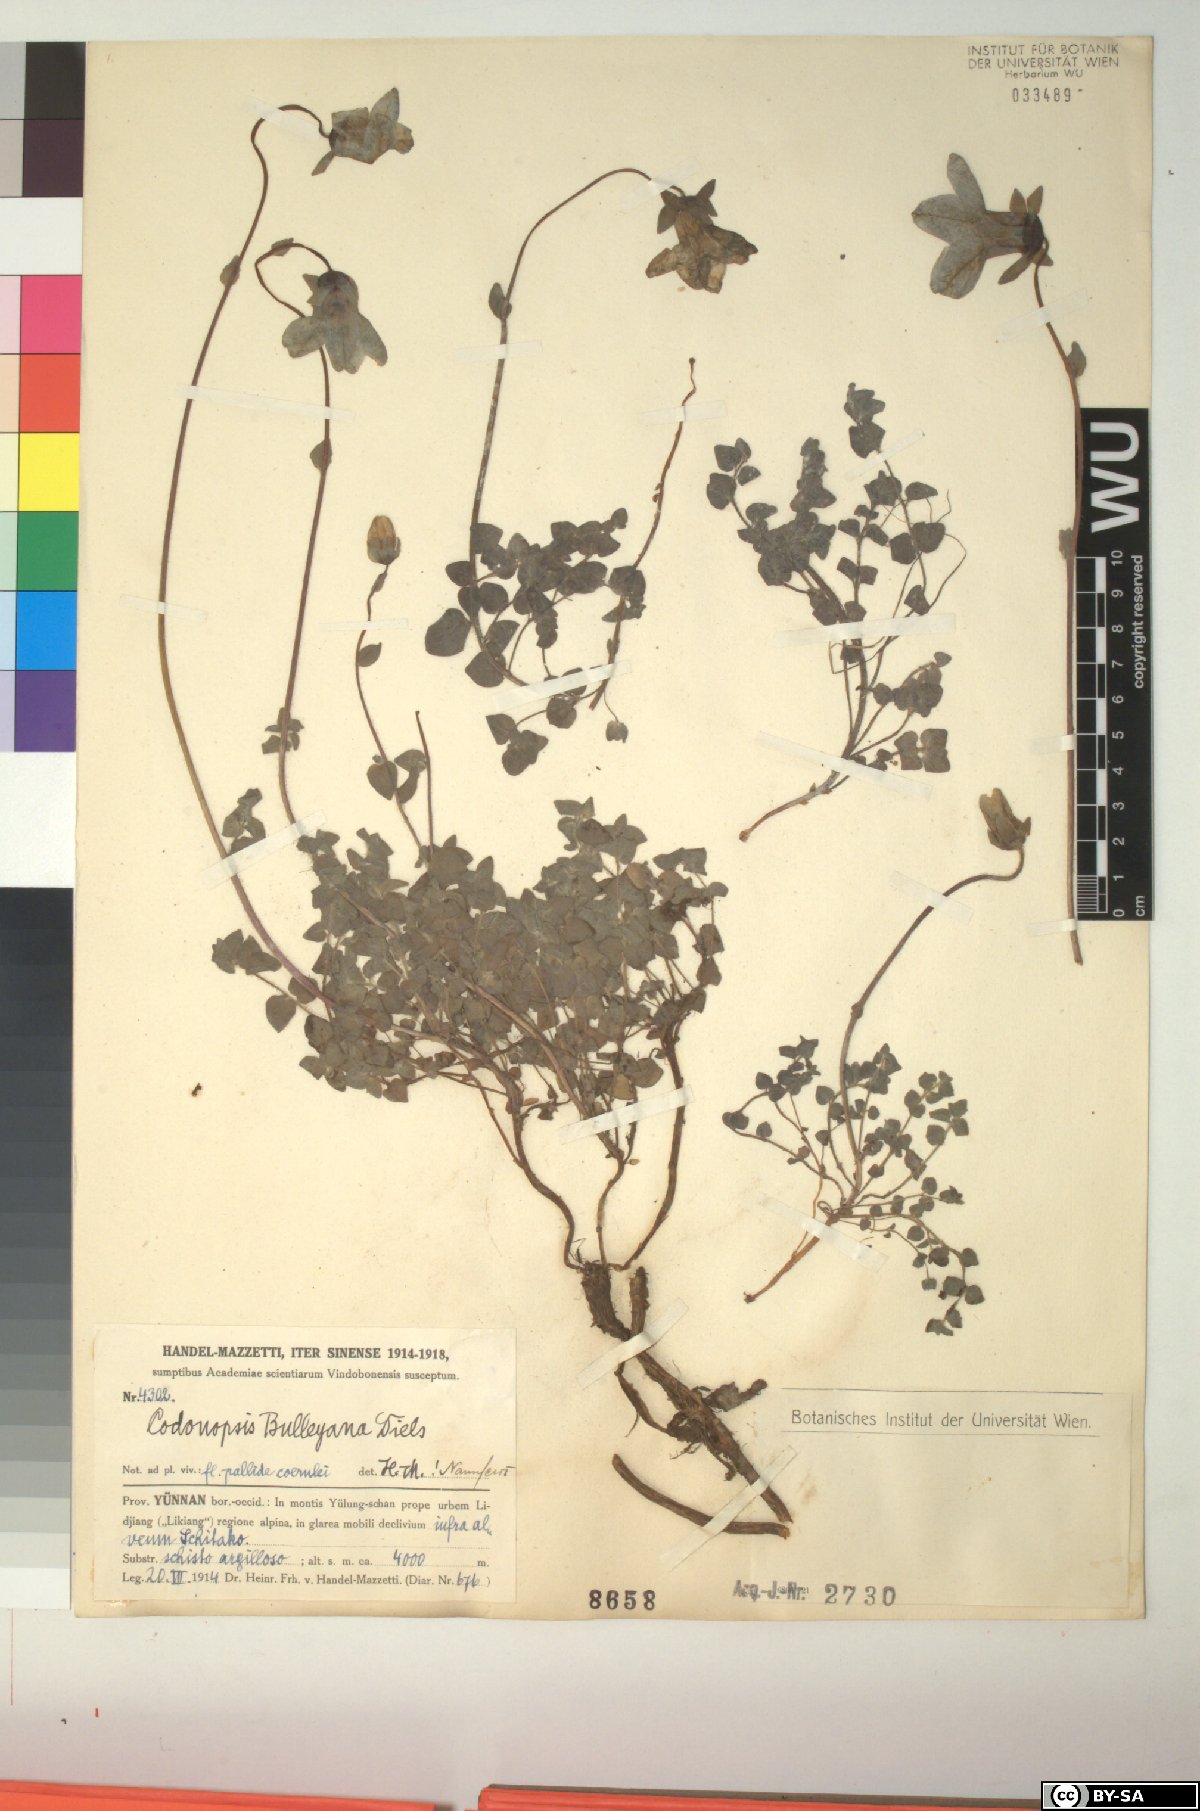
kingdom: Plantae
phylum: Tracheophyta
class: Magnoliopsida
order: Asterales
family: Campanulaceae
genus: Codonopsis
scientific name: Codonopsis bulleyana
